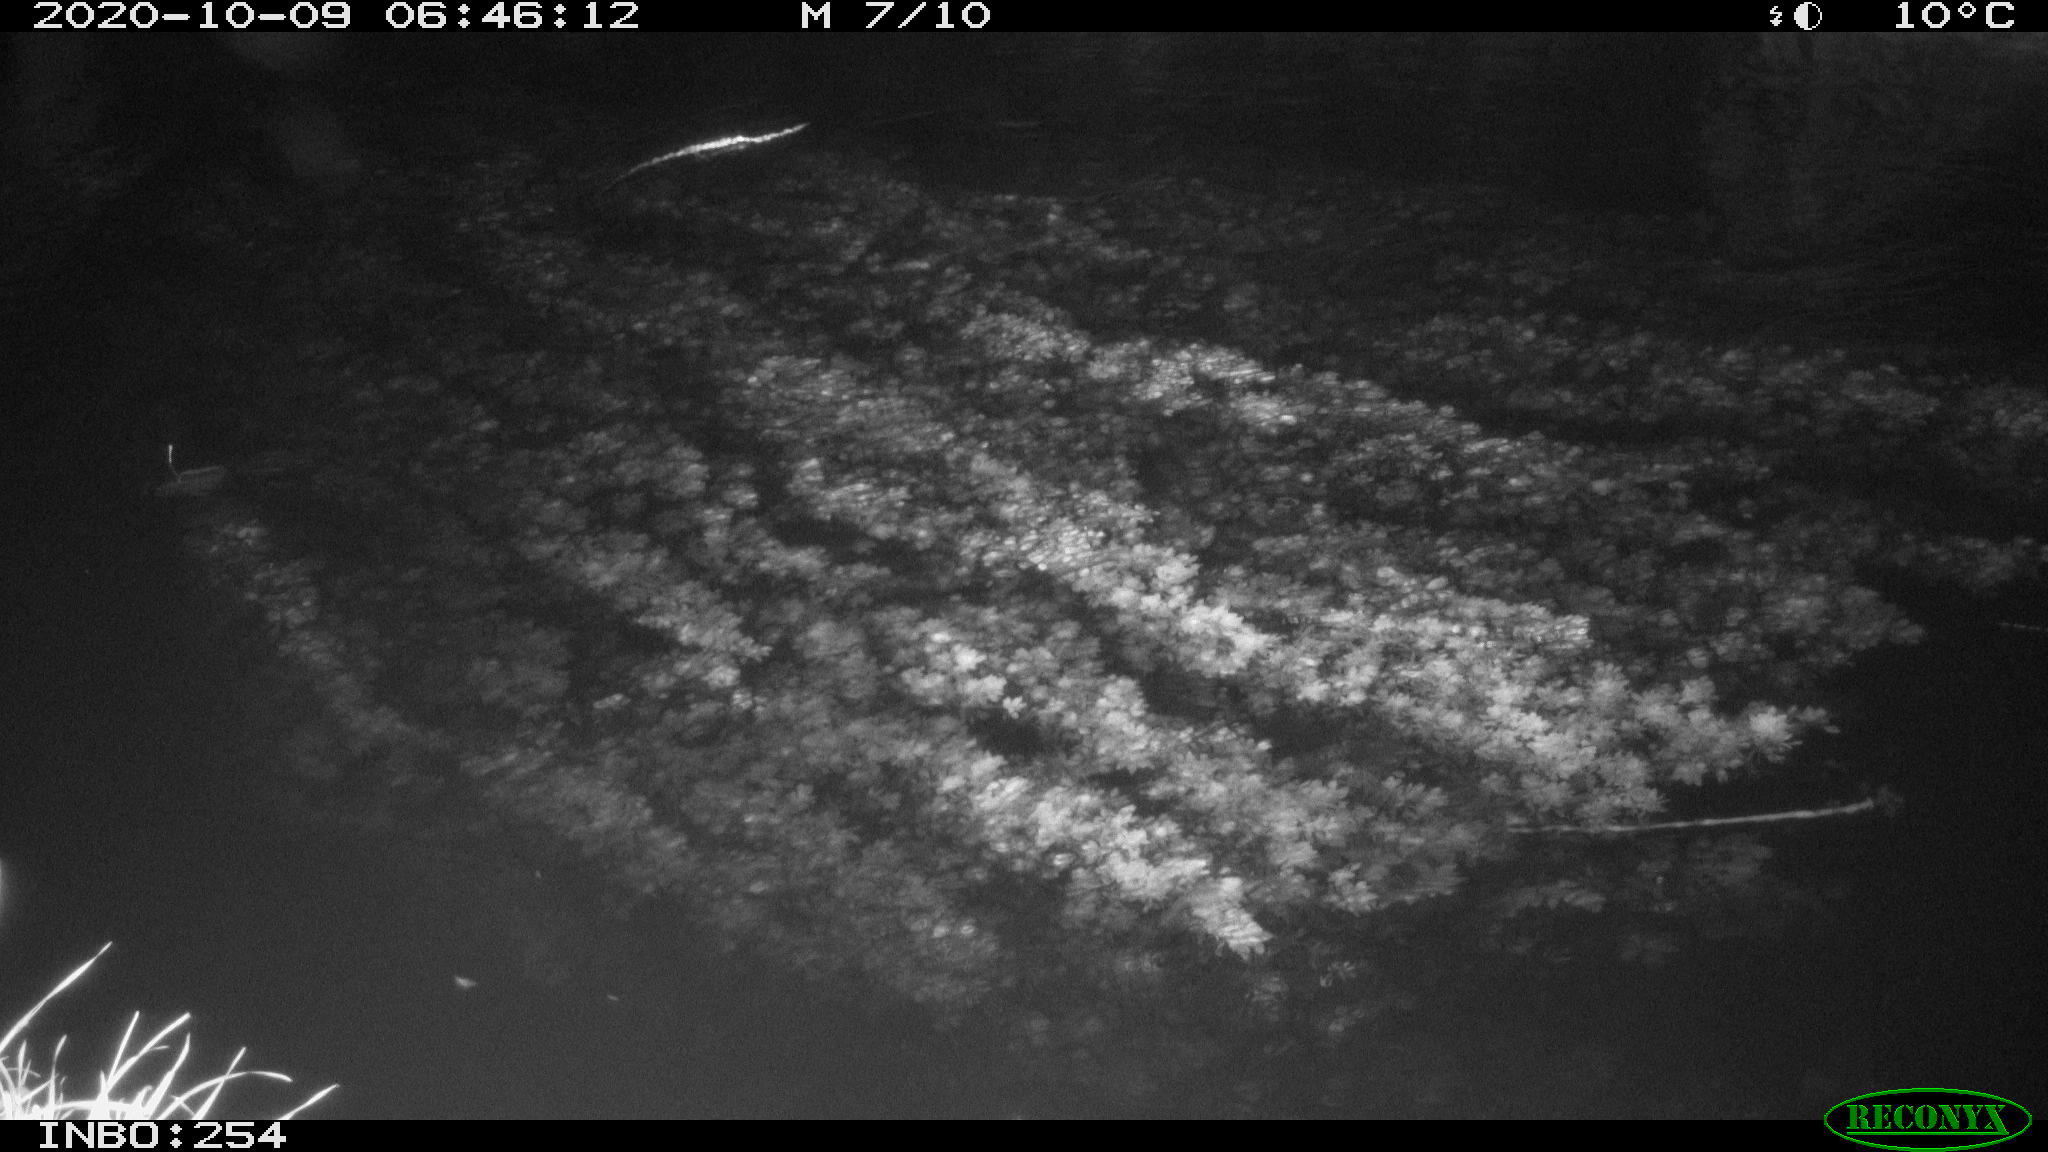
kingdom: Animalia
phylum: Chordata
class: Mammalia
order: Rodentia
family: Muridae
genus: Rattus
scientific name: Rattus norvegicus
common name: Brown rat
